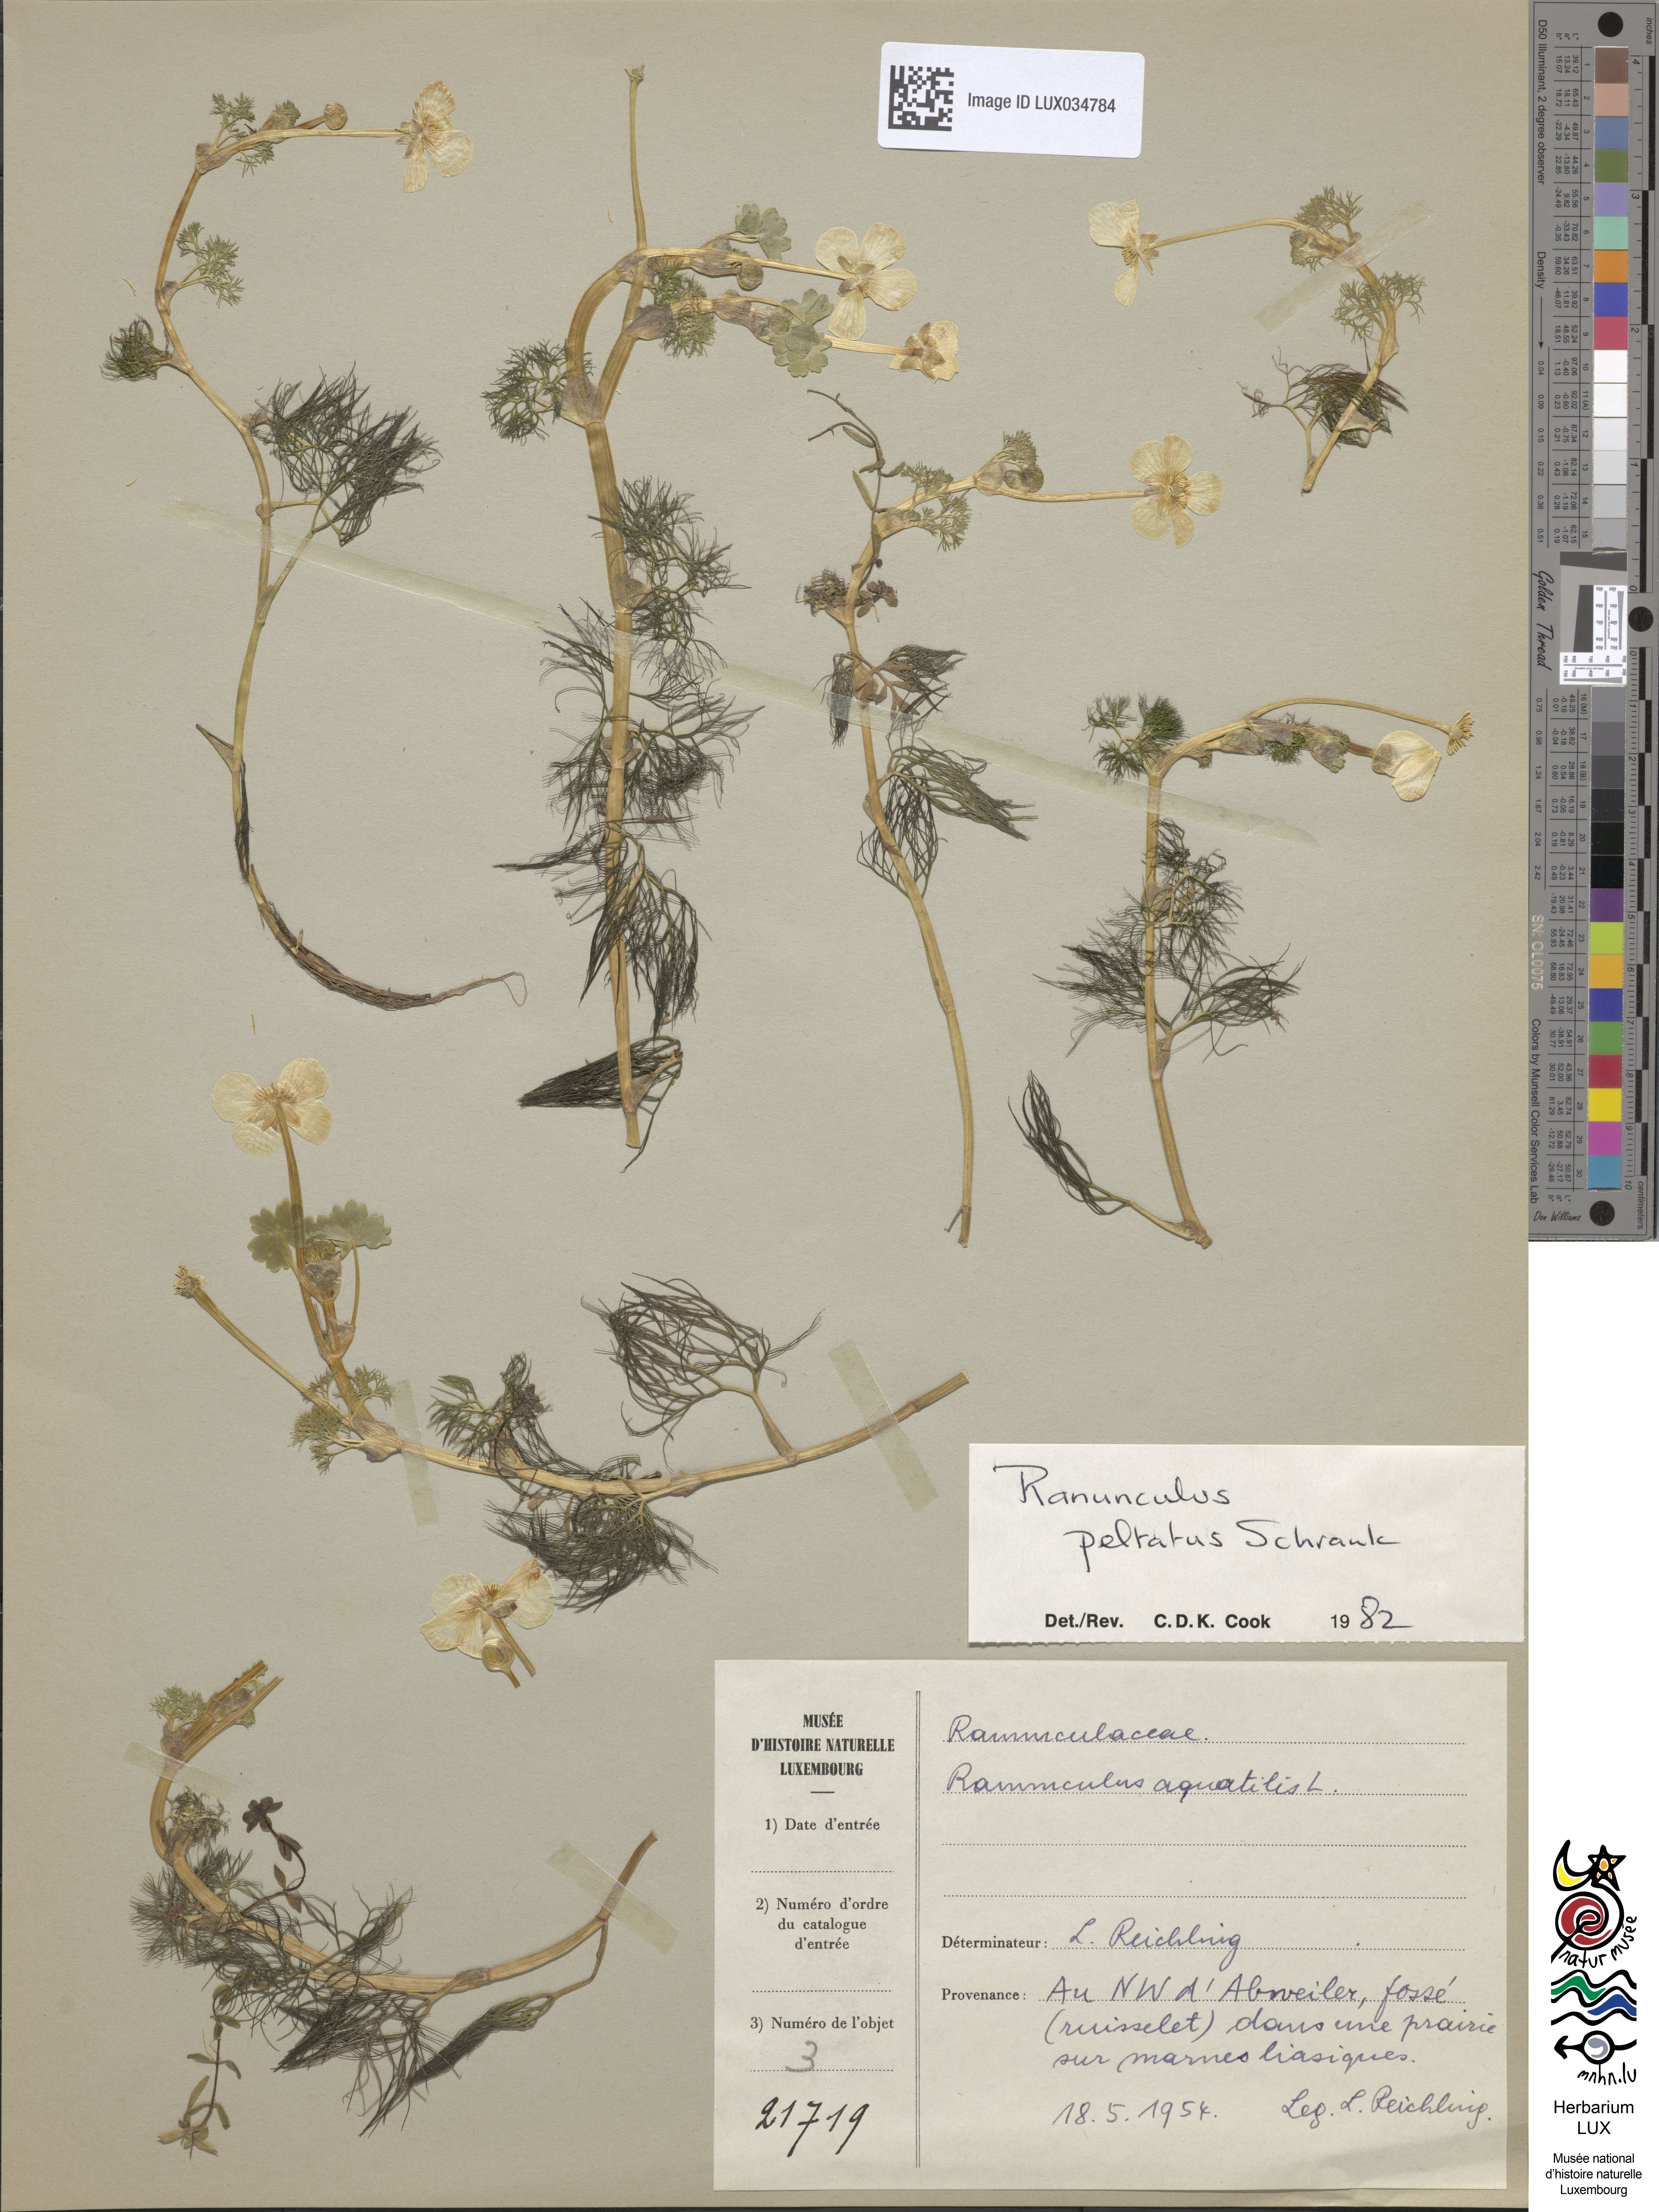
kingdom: Plantae
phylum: Tracheophyta
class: Magnoliopsida
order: Ranunculales
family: Ranunculaceae
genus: Ranunculus
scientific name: Ranunculus aquatilis
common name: Common water-crowfoot
